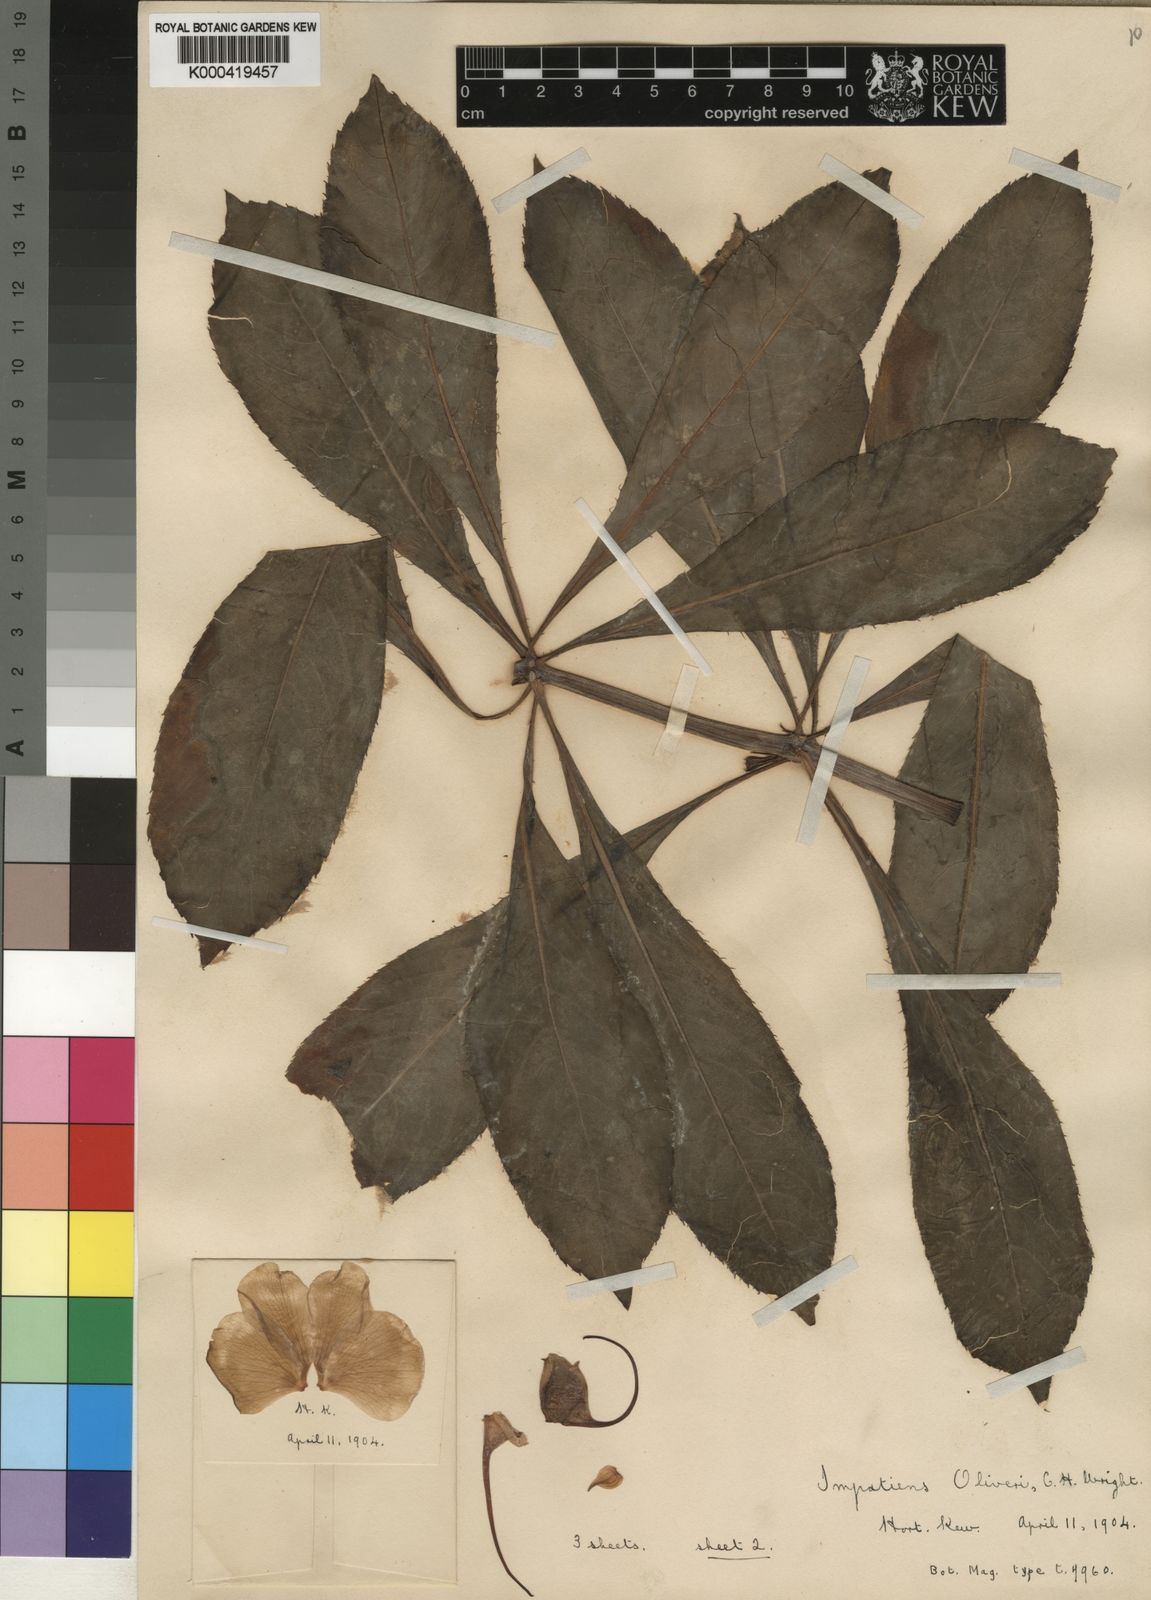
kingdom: Plantae
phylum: Tracheophyta
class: Magnoliopsida
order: Ericales
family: Balsaminaceae
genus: Impatiens
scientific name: Impatiens sodenii
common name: Oliver's touch-me-not
